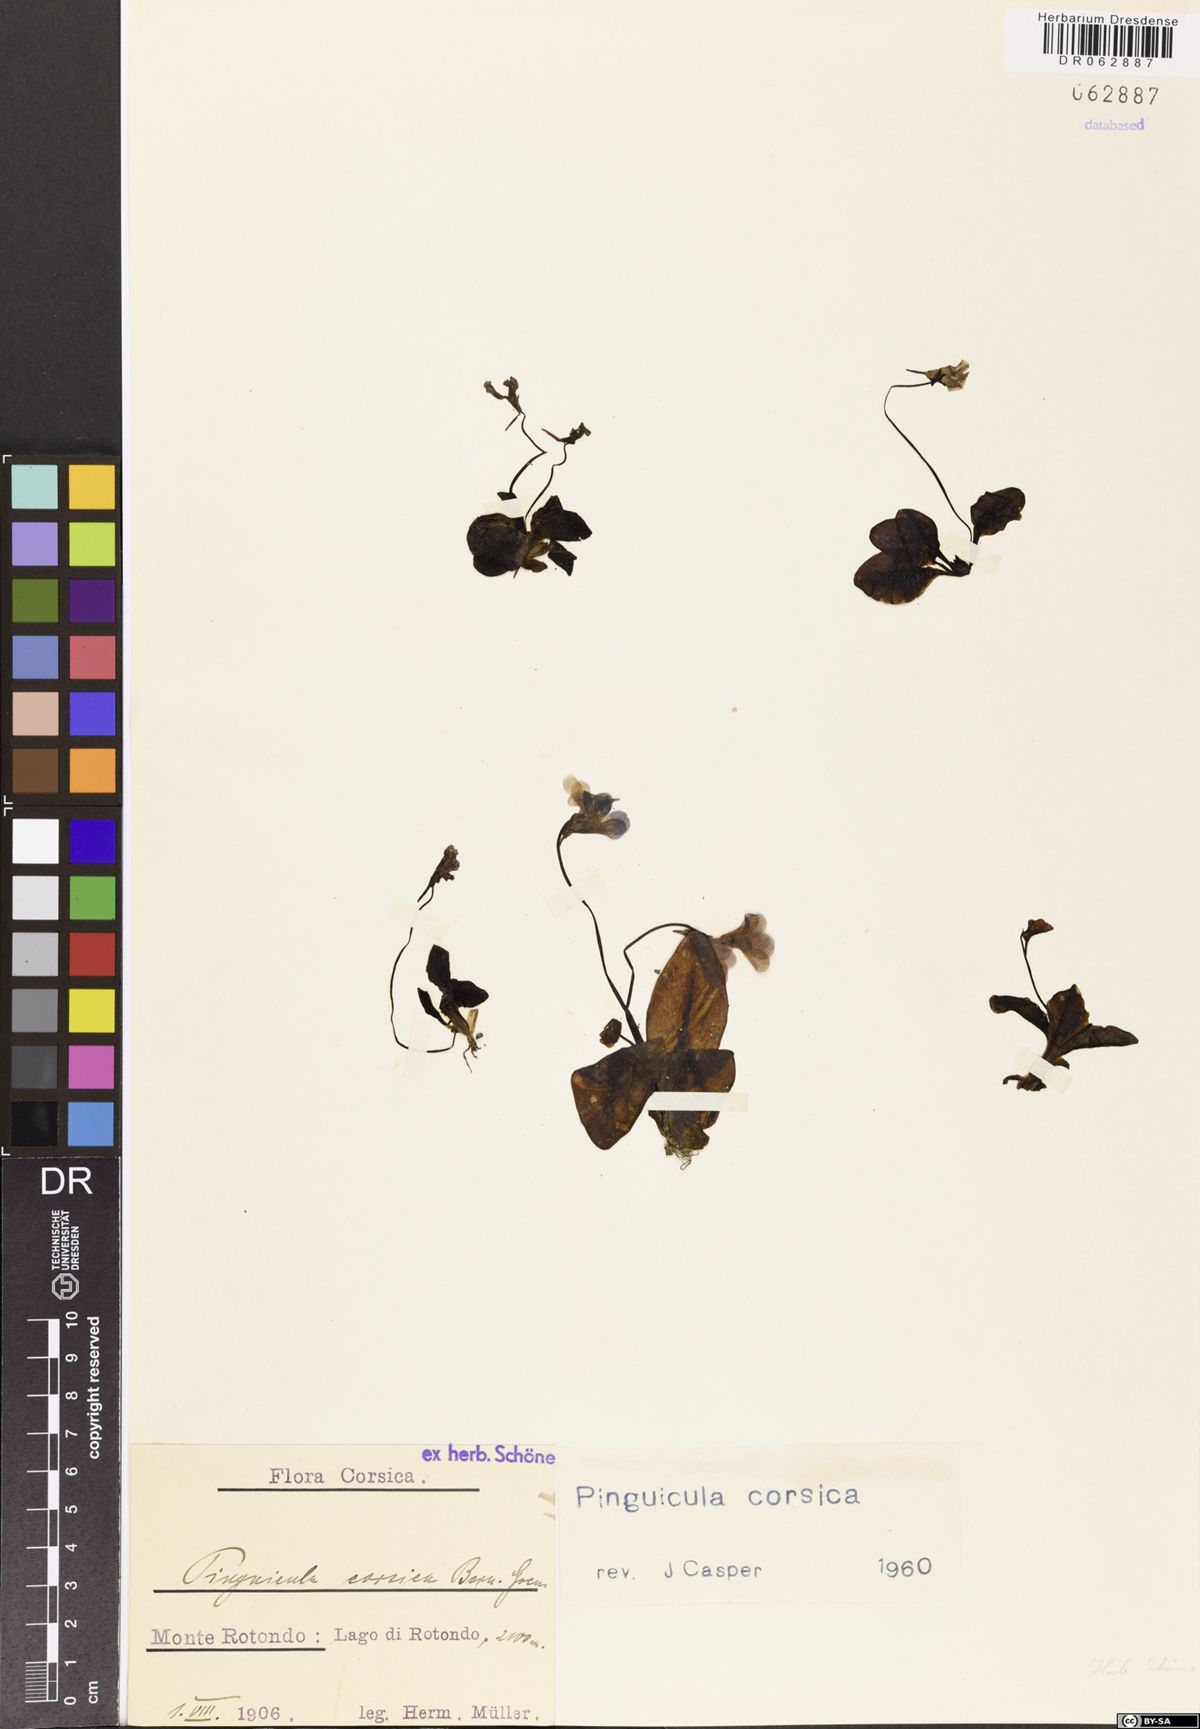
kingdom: Plantae
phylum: Tracheophyta
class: Magnoliopsida
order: Lamiales
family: Lentibulariaceae
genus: Pinguicula
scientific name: Pinguicula corsica
